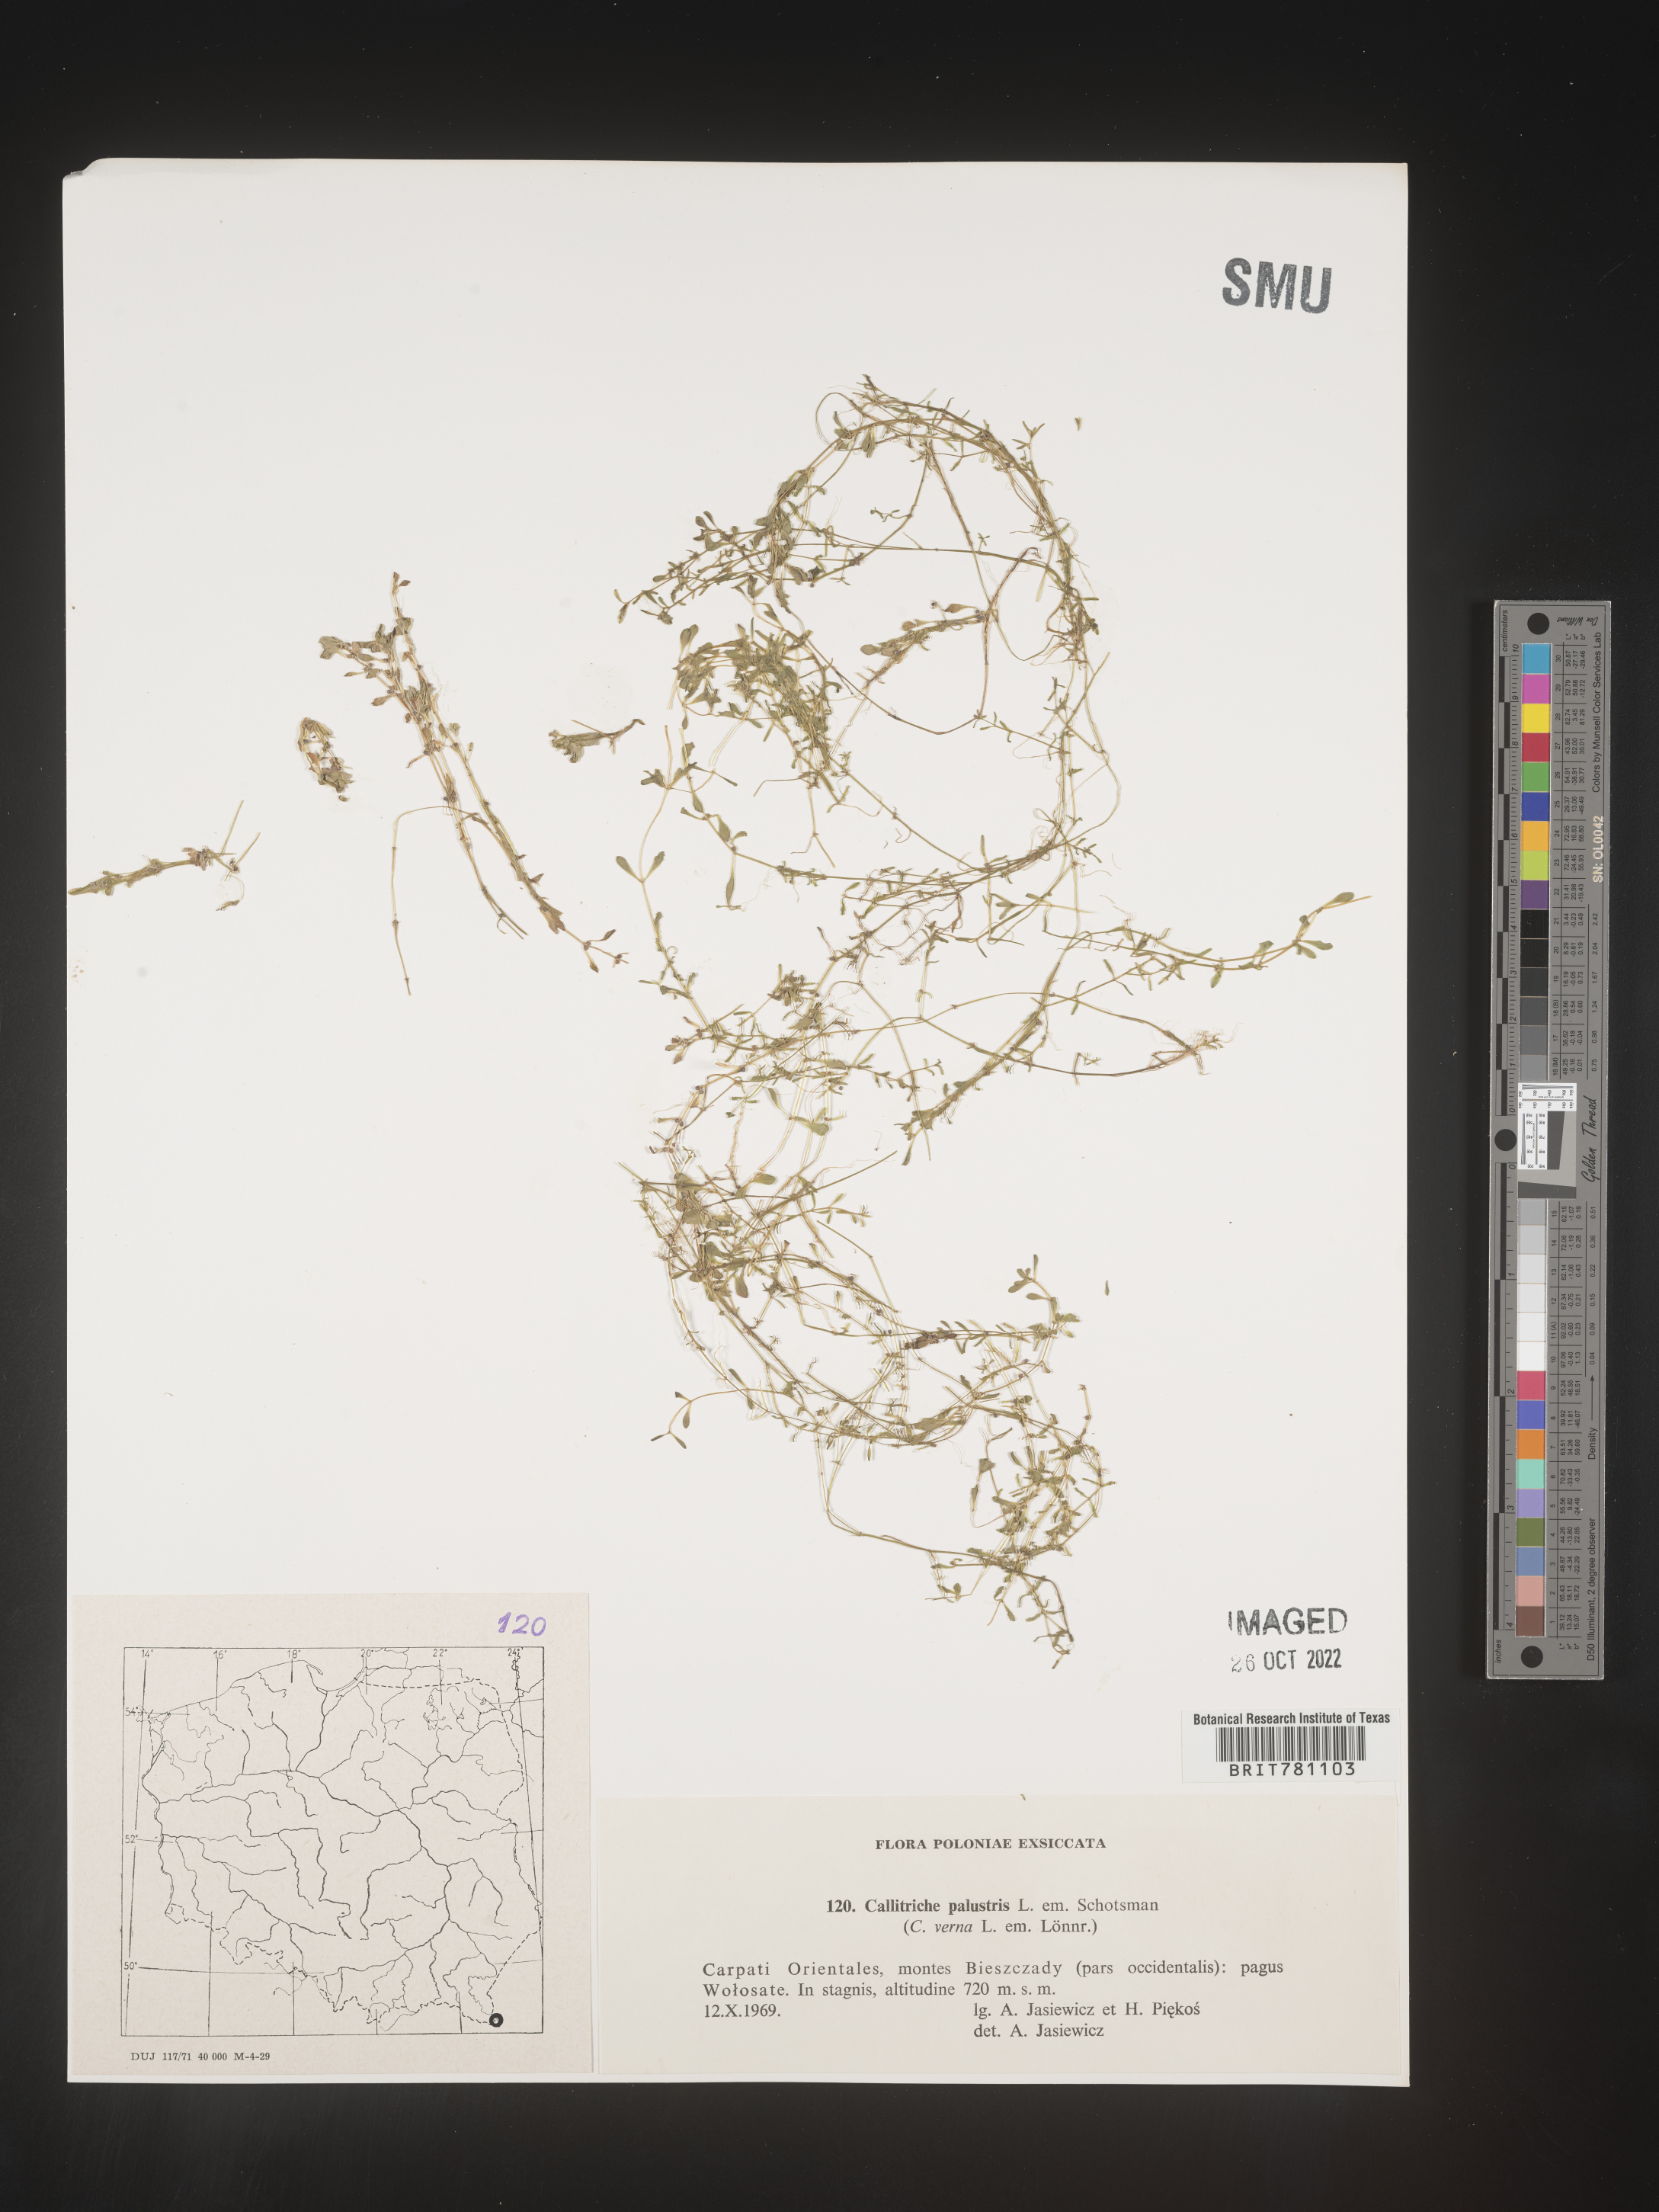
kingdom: Plantae
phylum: Tracheophyta
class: Magnoliopsida
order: Lamiales
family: Plantaginaceae
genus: Callitriche
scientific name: Callitriche
